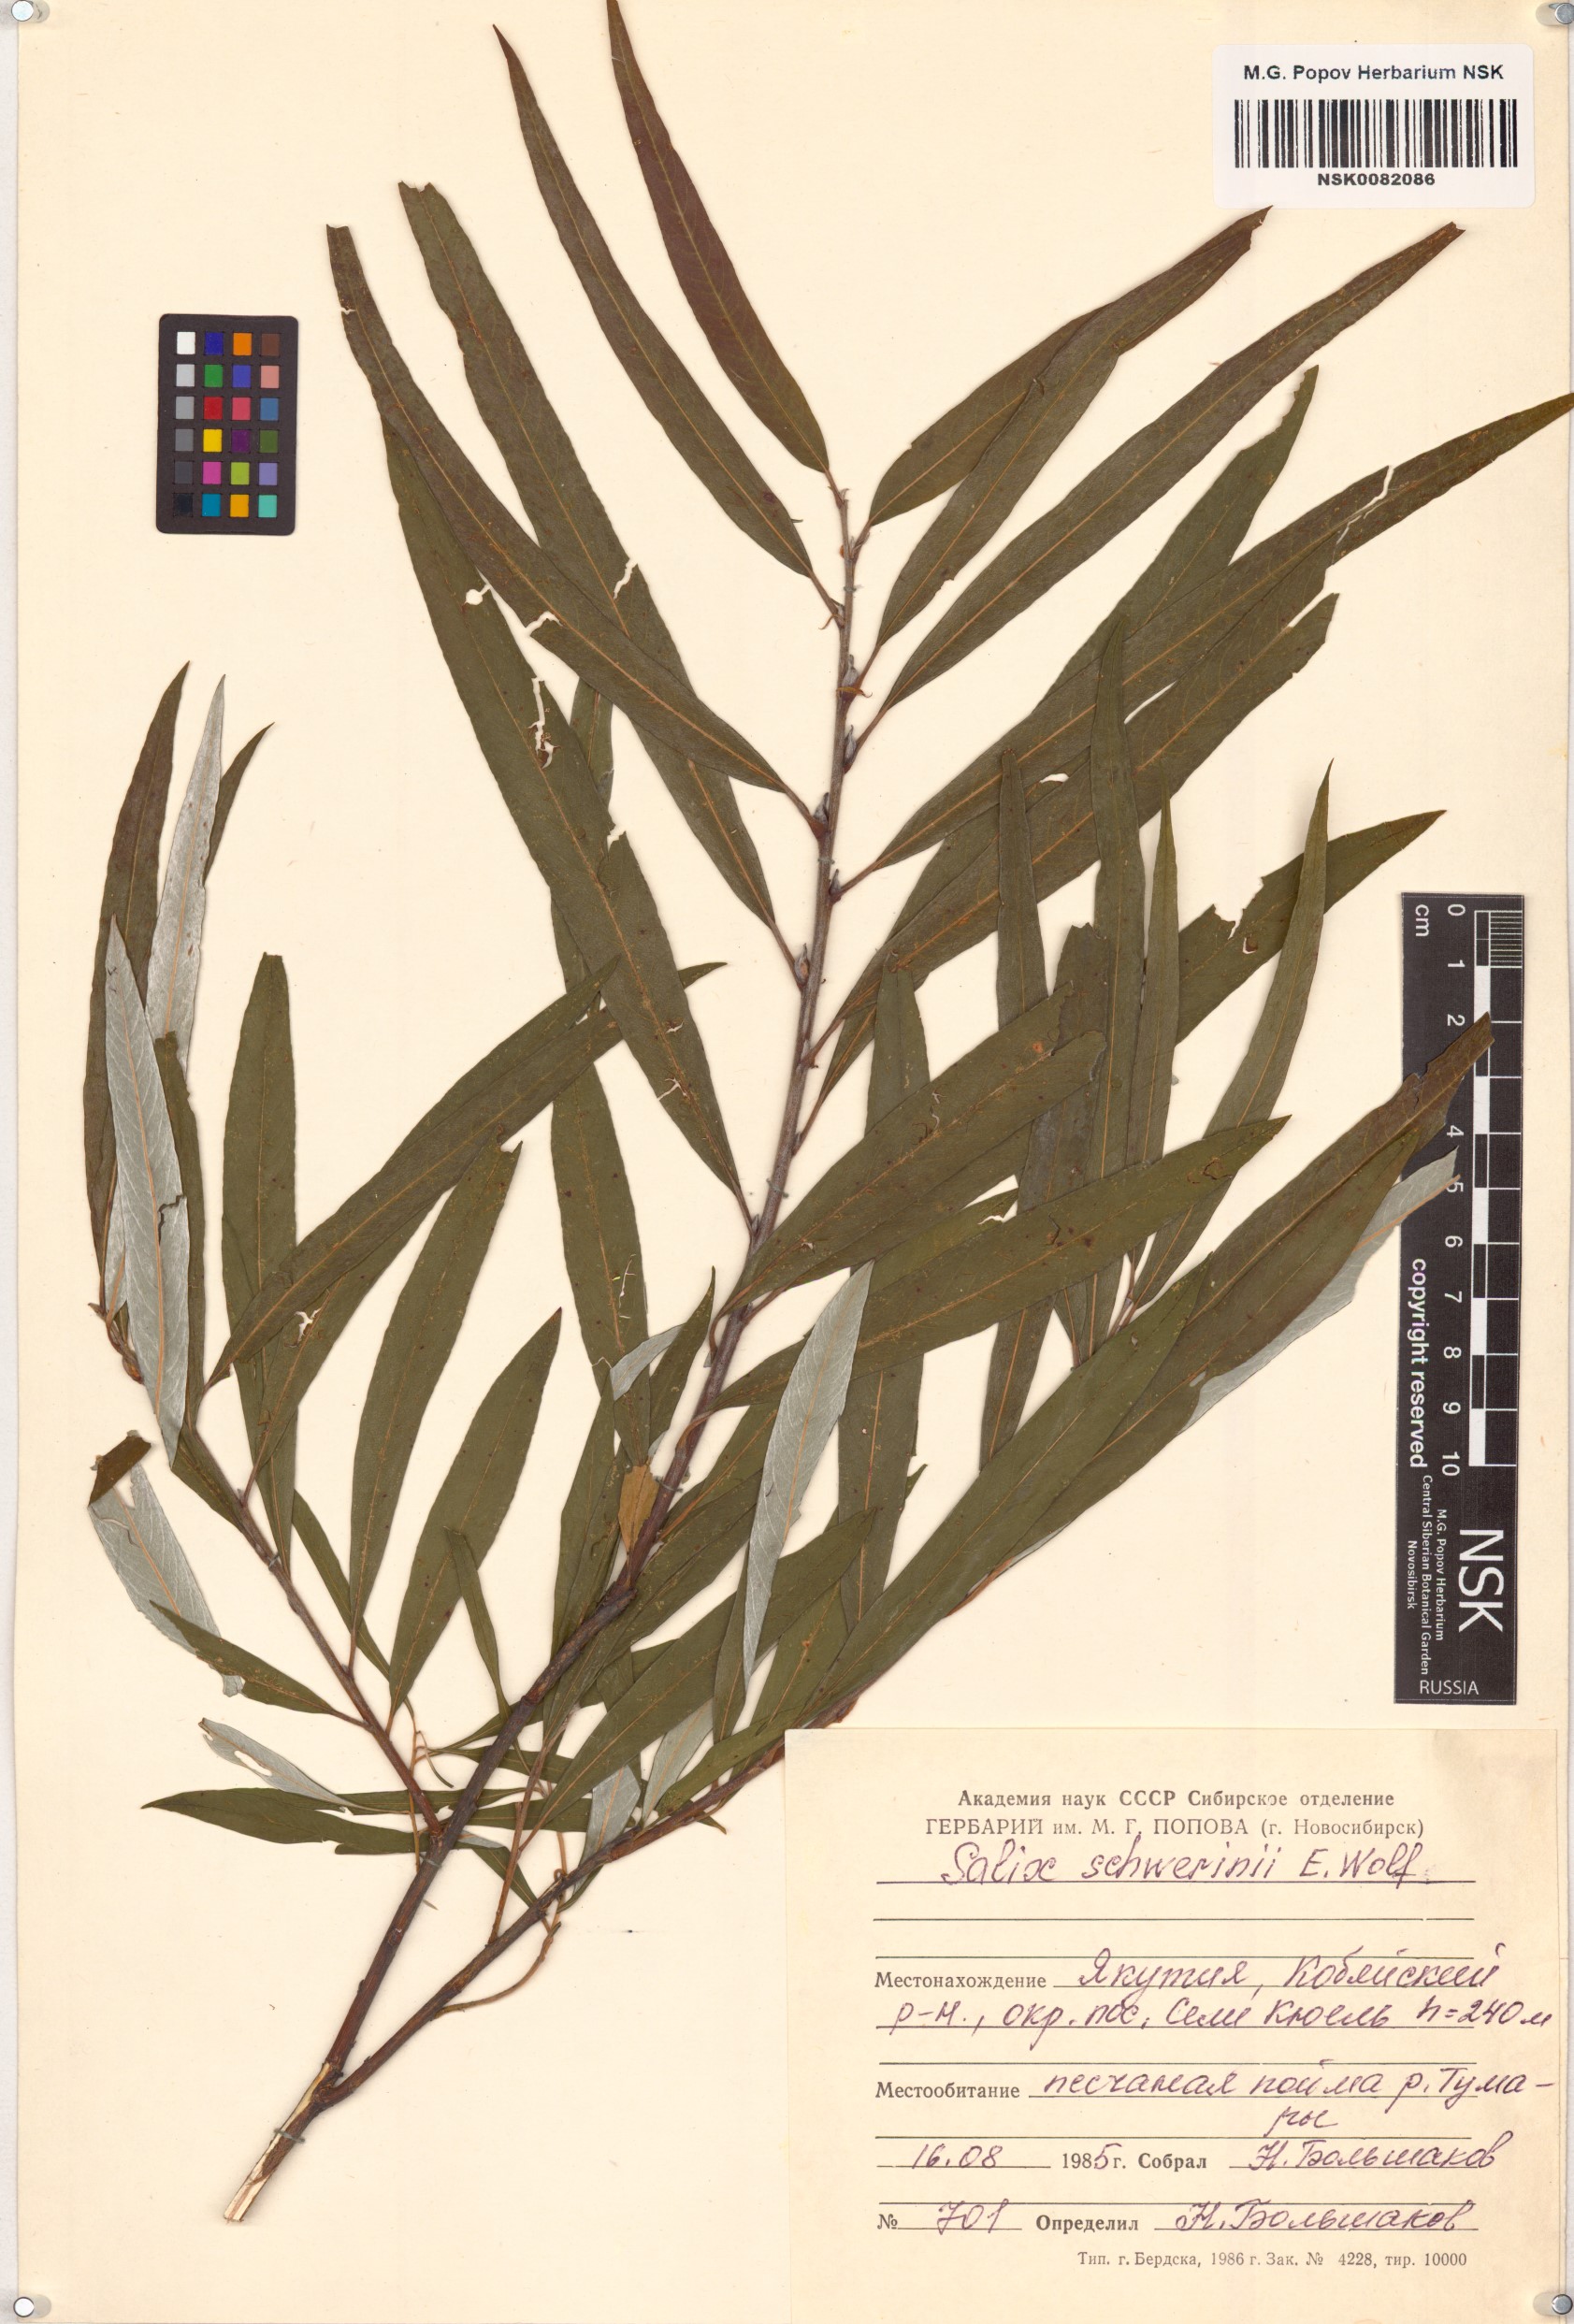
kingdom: Plantae
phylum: Tracheophyta
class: Magnoliopsida
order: Malpighiales
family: Salicaceae
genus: Salix
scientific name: Salix schwerinii
